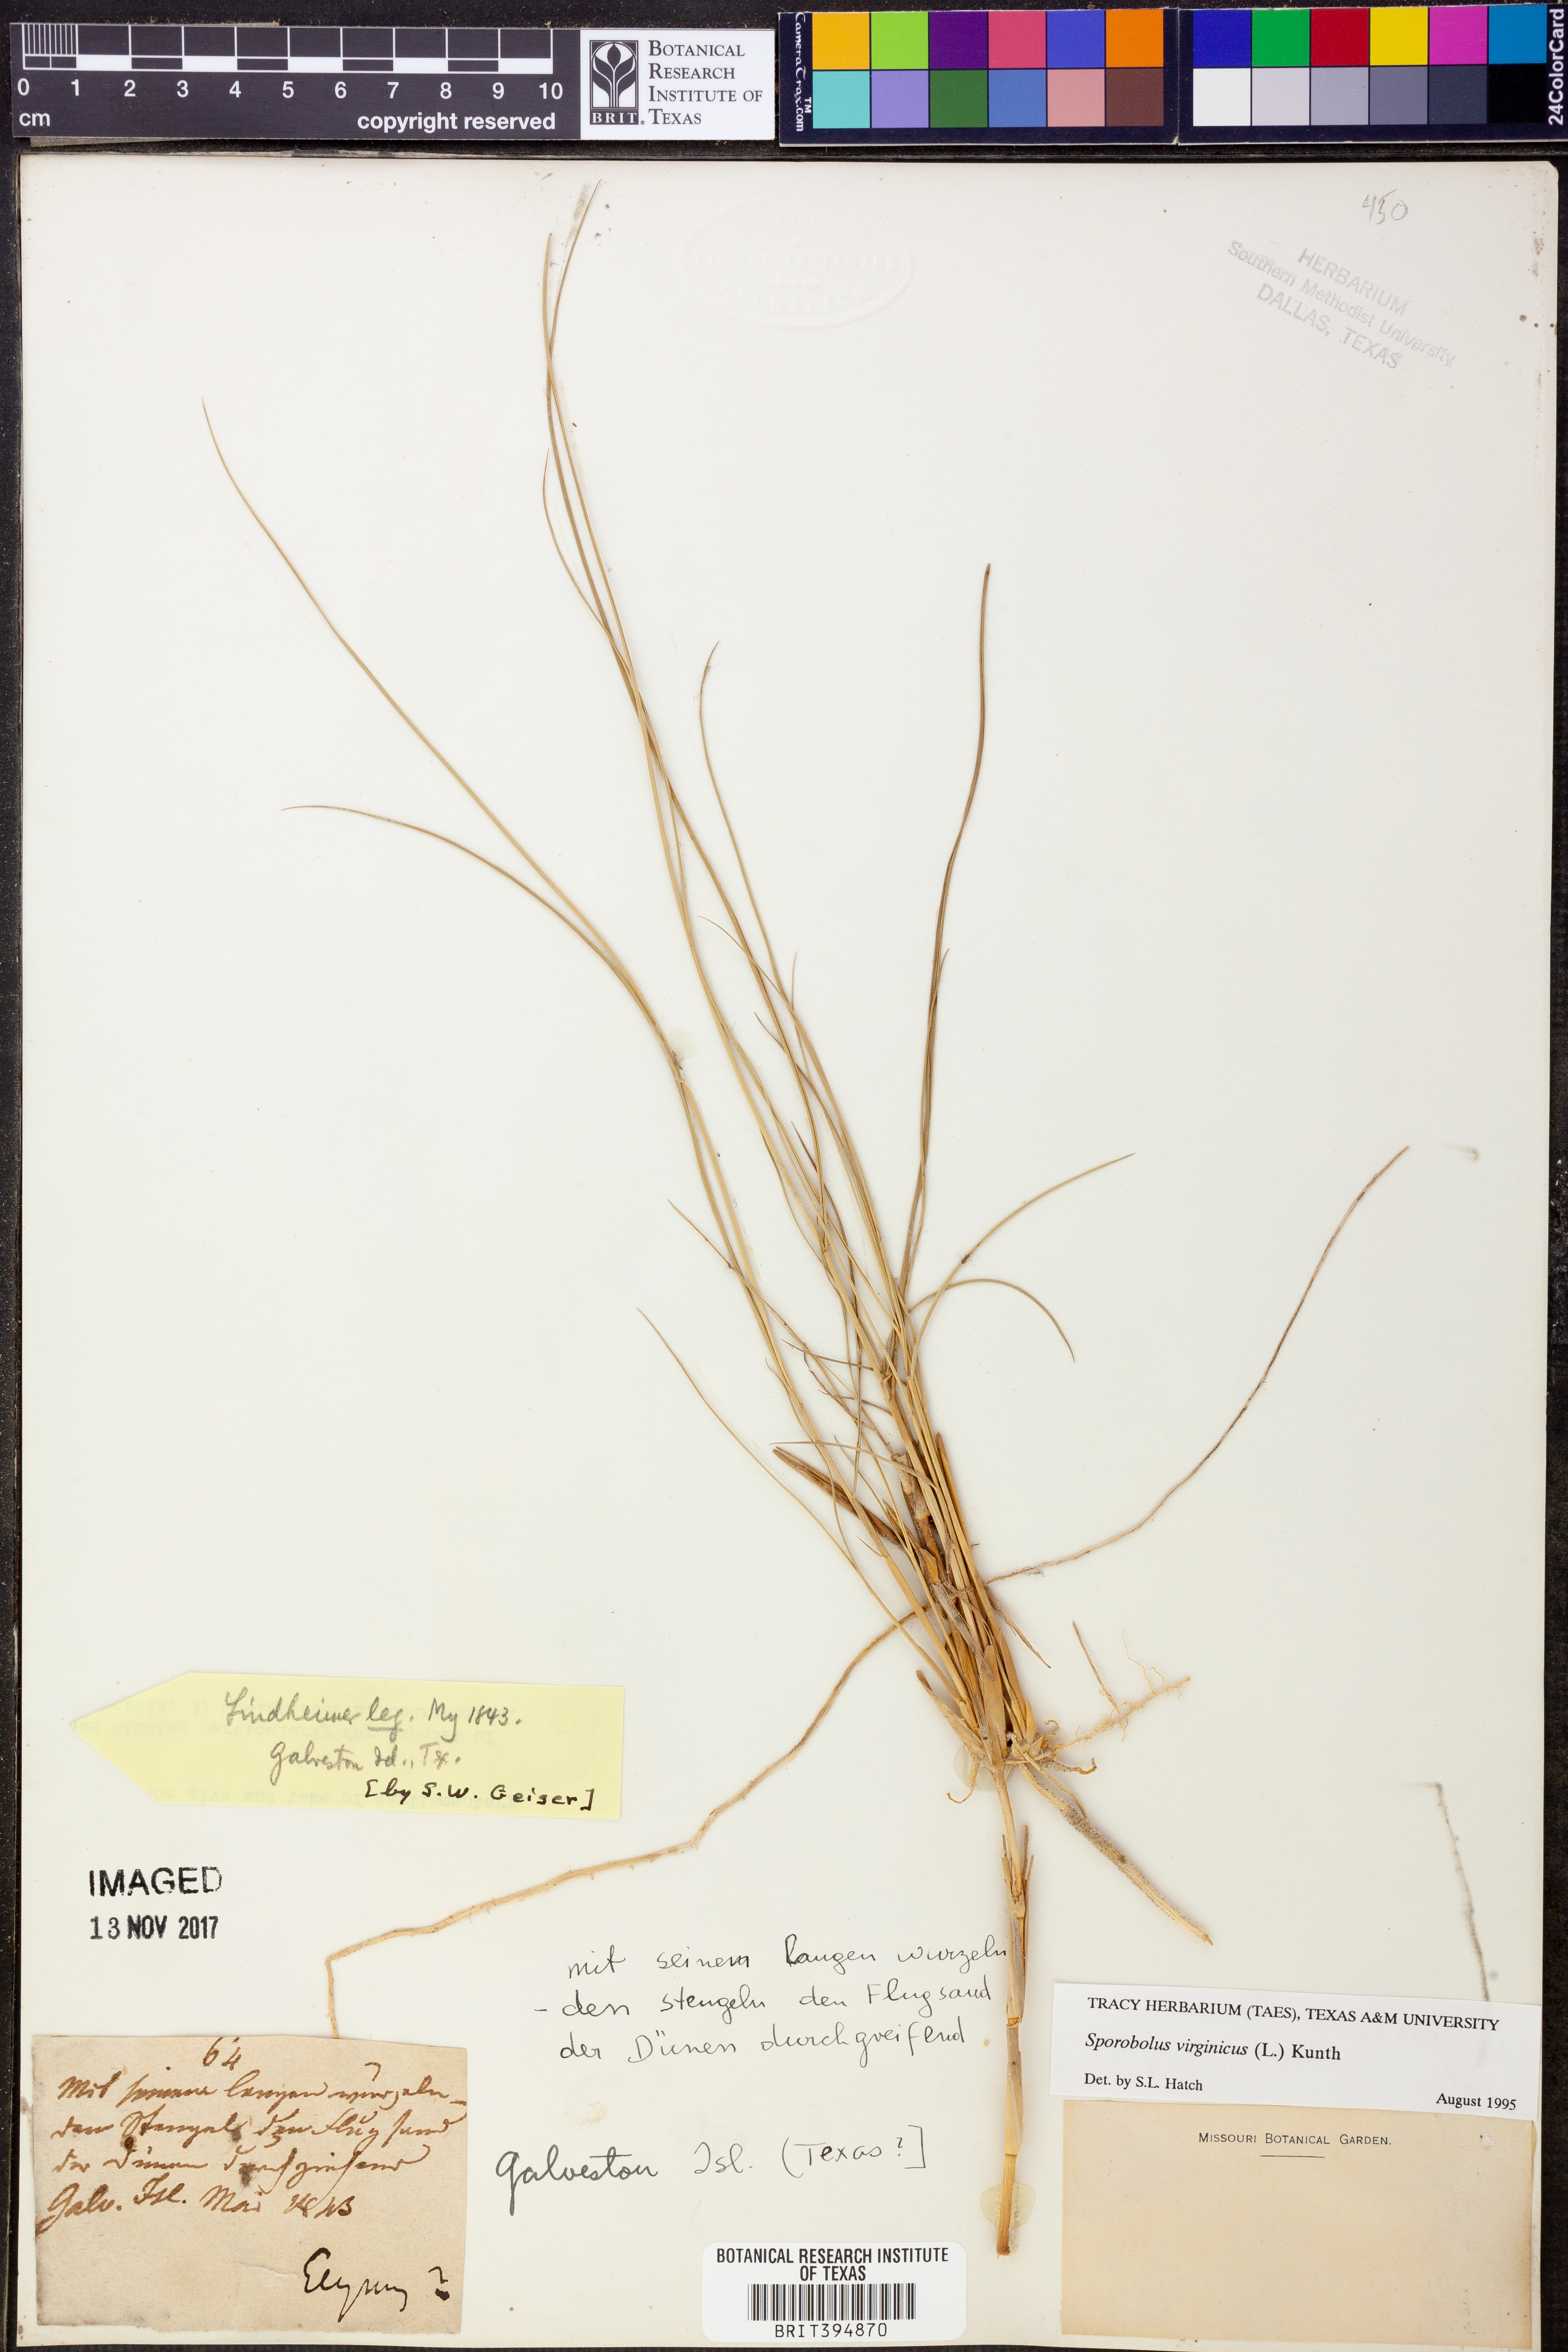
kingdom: Plantae
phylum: Tracheophyta
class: Liliopsida
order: Poales
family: Poaceae
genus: Sporobolus
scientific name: Sporobolus virginicus
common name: Beach dropseed
